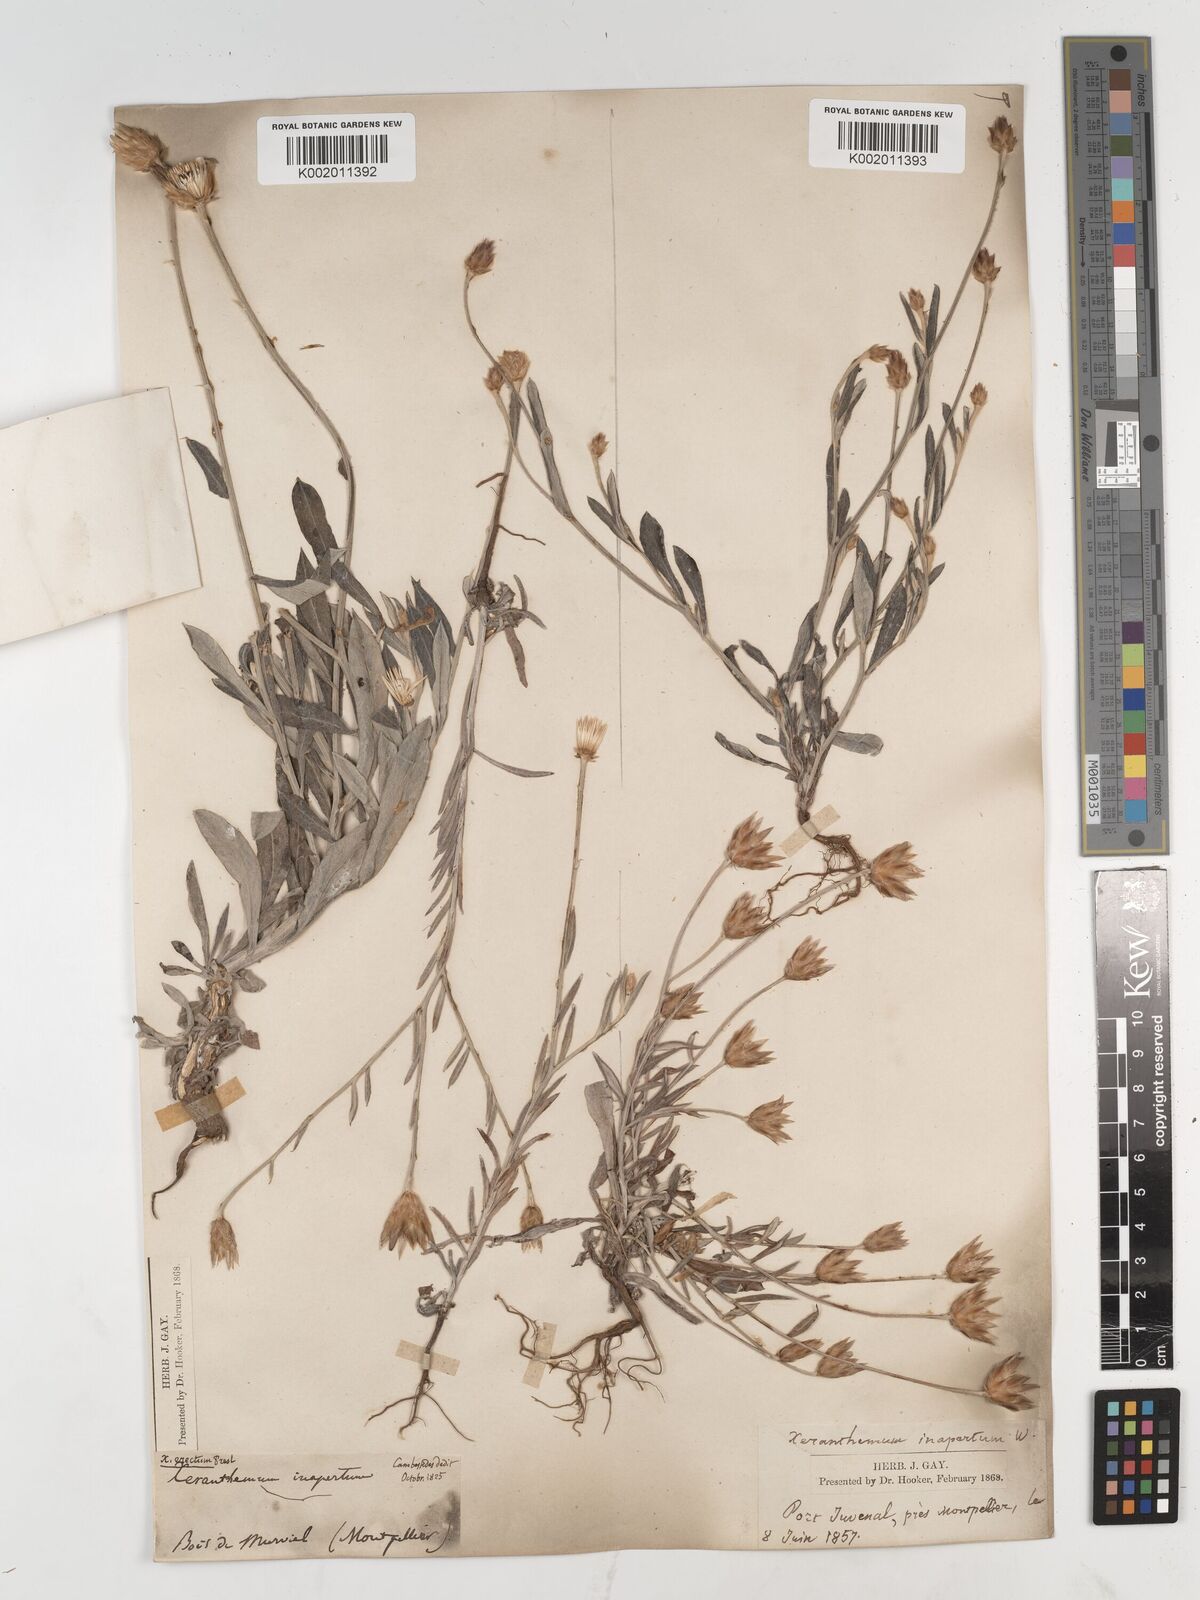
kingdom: Plantae
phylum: Tracheophyta
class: Magnoliopsida
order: Asterales
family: Asteraceae
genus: Xeranthemum
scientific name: Xeranthemum inapertum
